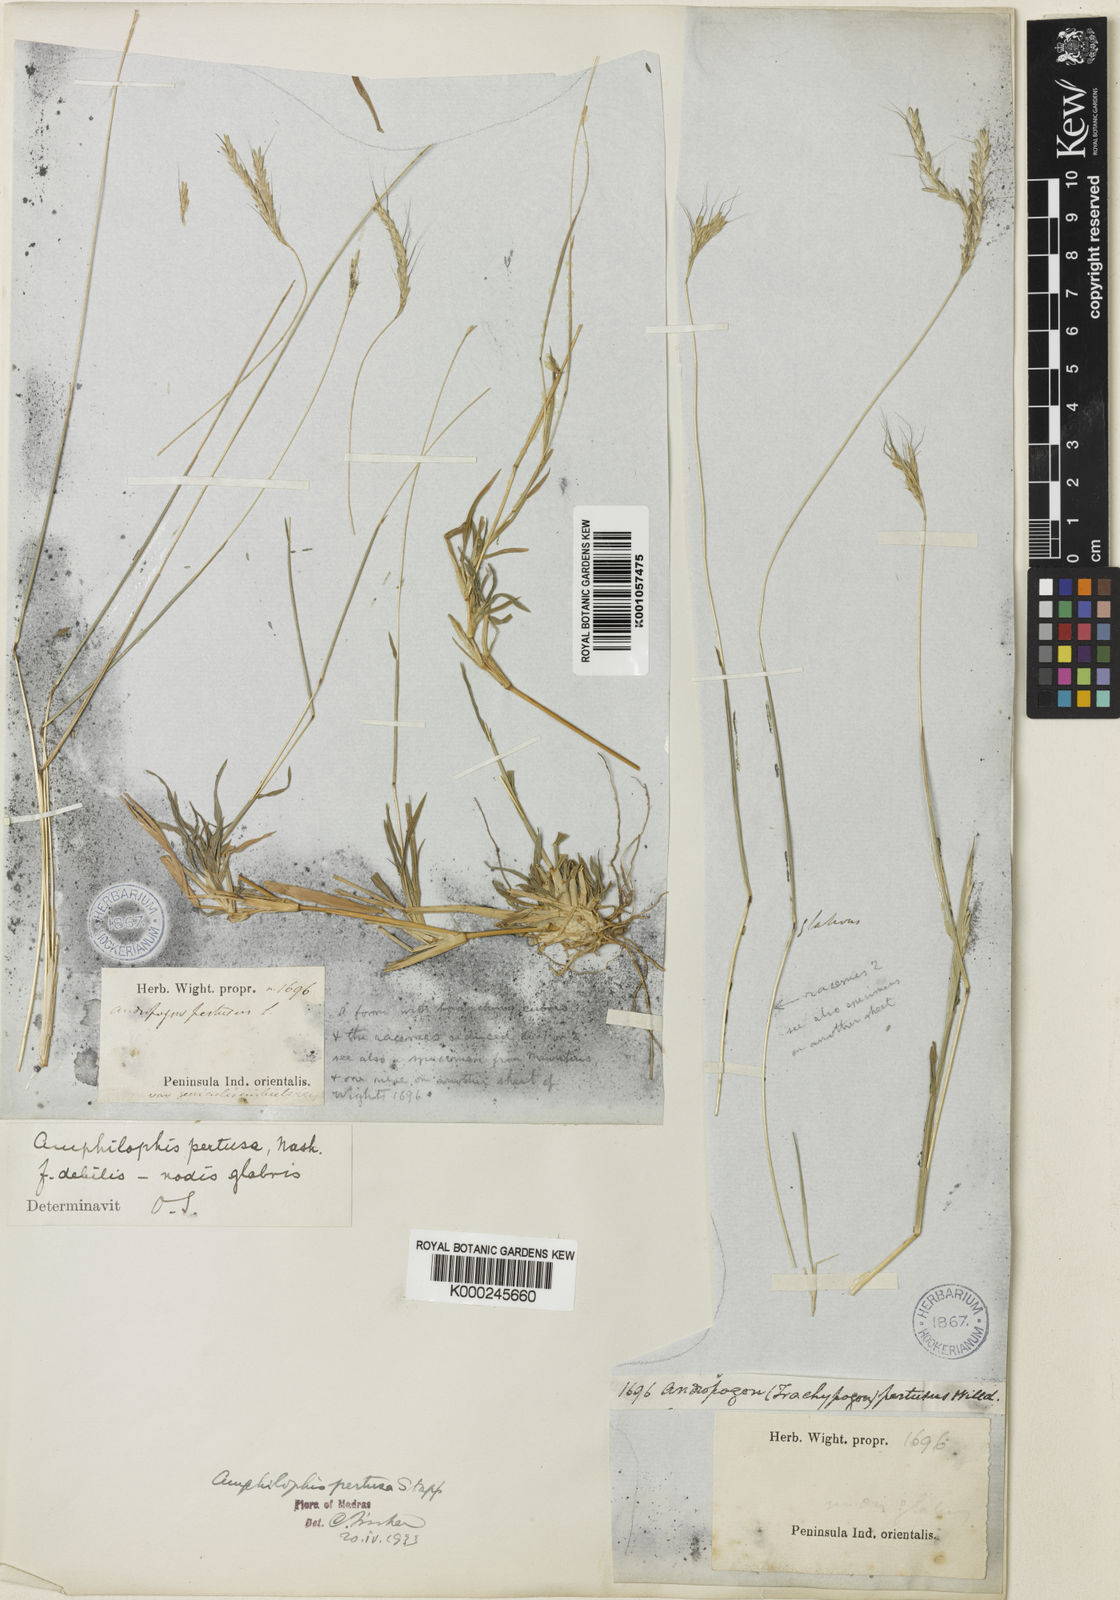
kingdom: Plantae
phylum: Tracheophyta
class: Liliopsida
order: Poales
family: Poaceae
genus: Bothriochloa
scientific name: Bothriochloa pertusa
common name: Pitted beardgrass
